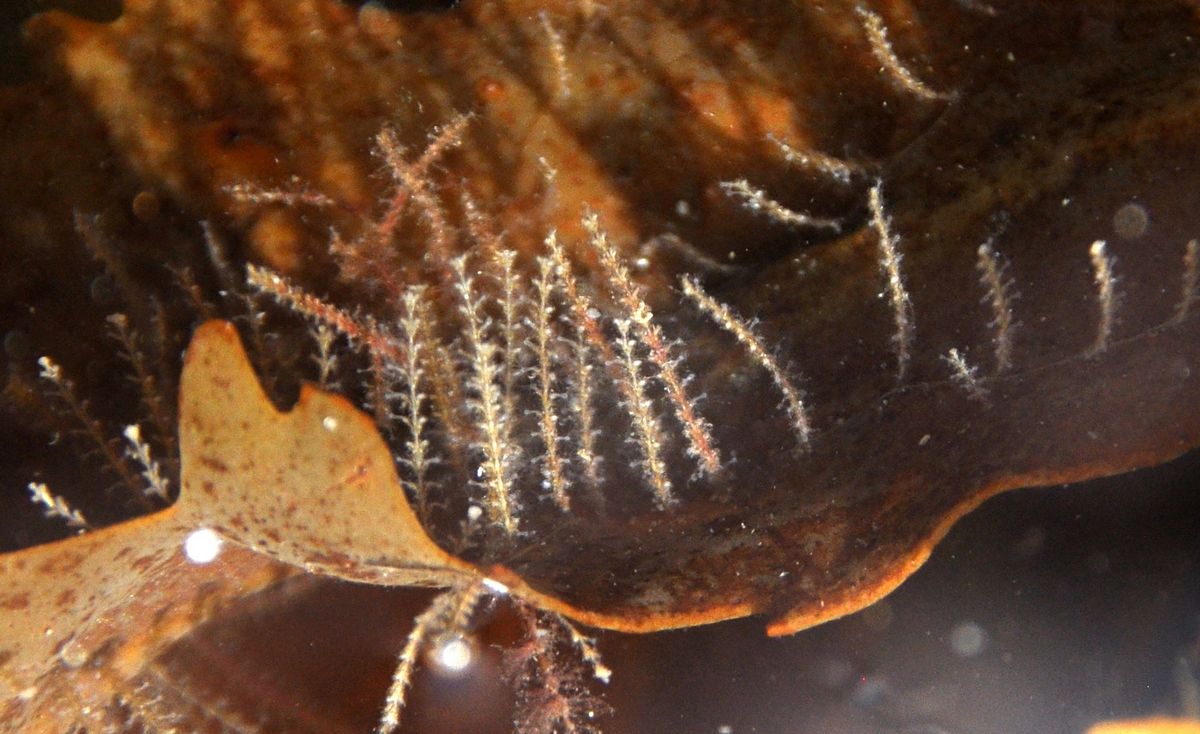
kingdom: Animalia
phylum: Cnidaria
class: Hydrozoa
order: Leptothecata
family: Sertulariidae
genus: Dynamena
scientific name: Dynamena pumila
